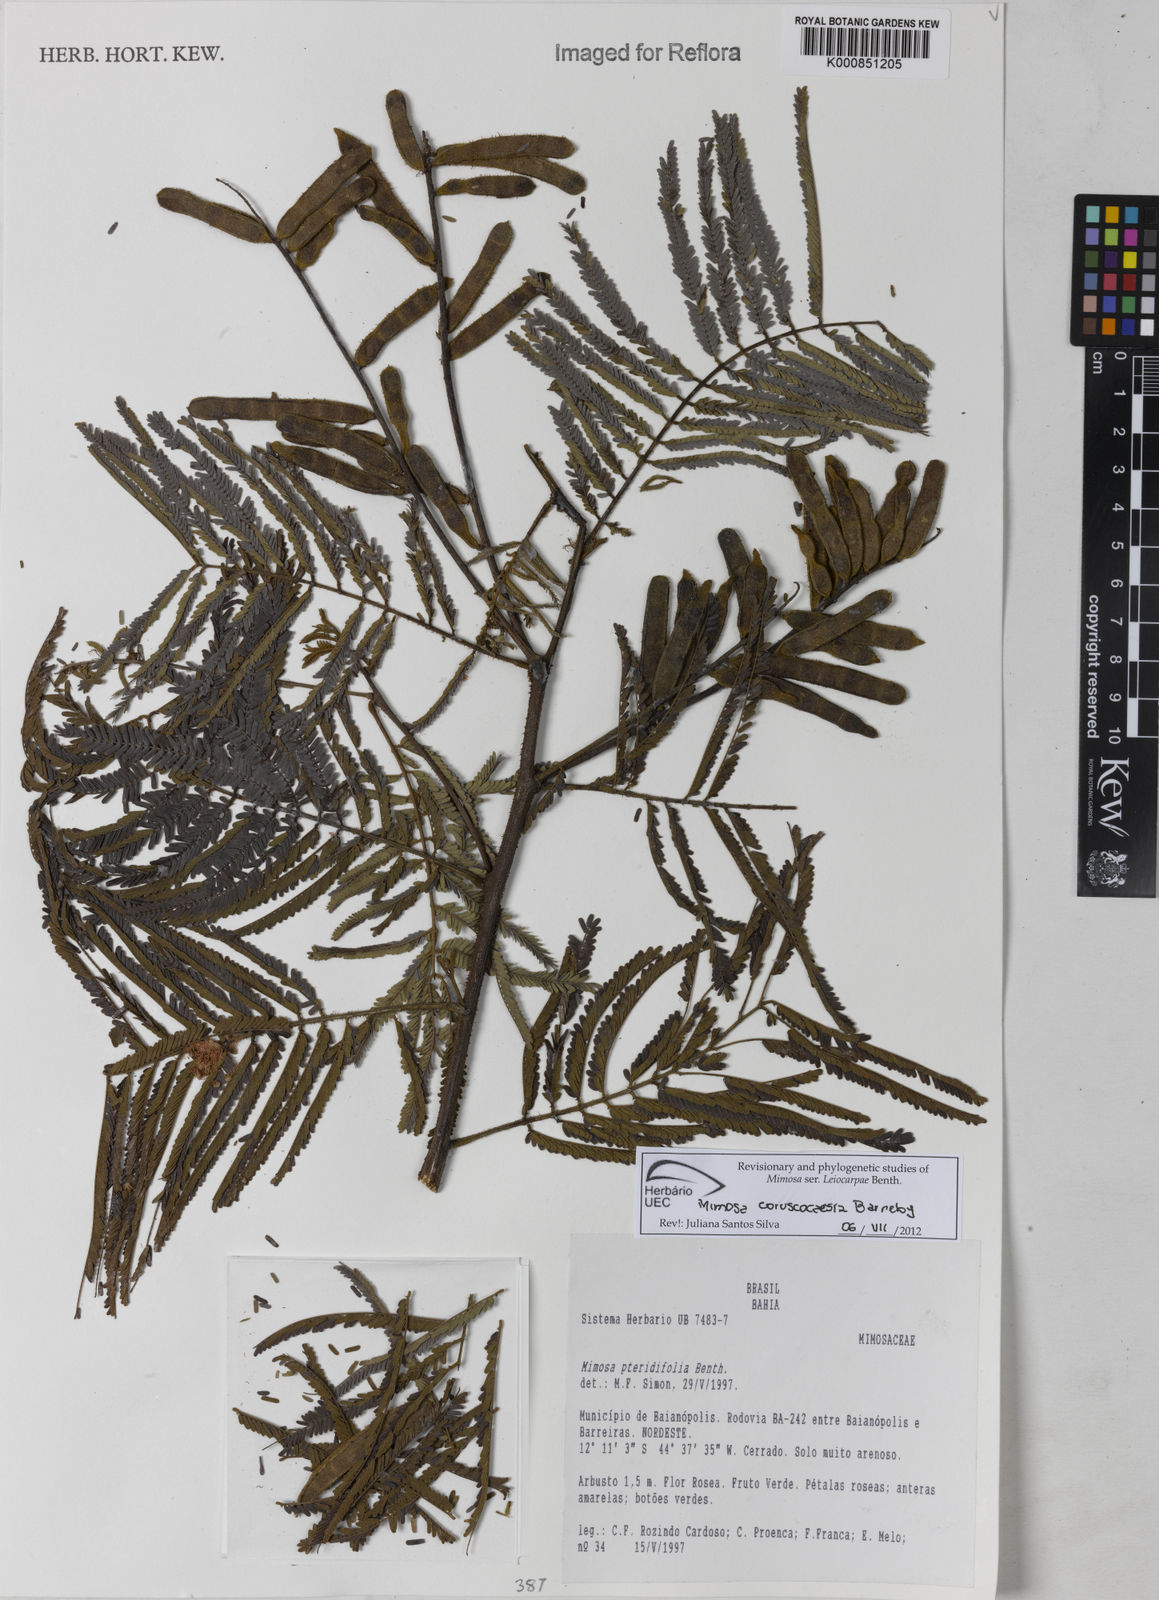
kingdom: Plantae
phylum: Tracheophyta
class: Magnoliopsida
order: Fabales
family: Fabaceae
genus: Mimosa
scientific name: Mimosa coruscocaesia
